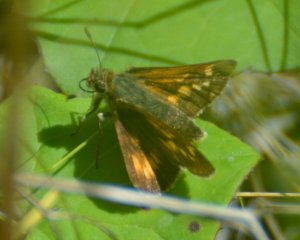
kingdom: Animalia
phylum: Arthropoda
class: Insecta
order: Lepidoptera
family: Hesperiidae
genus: Polites
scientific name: Polites
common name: Long Dash Skipper
